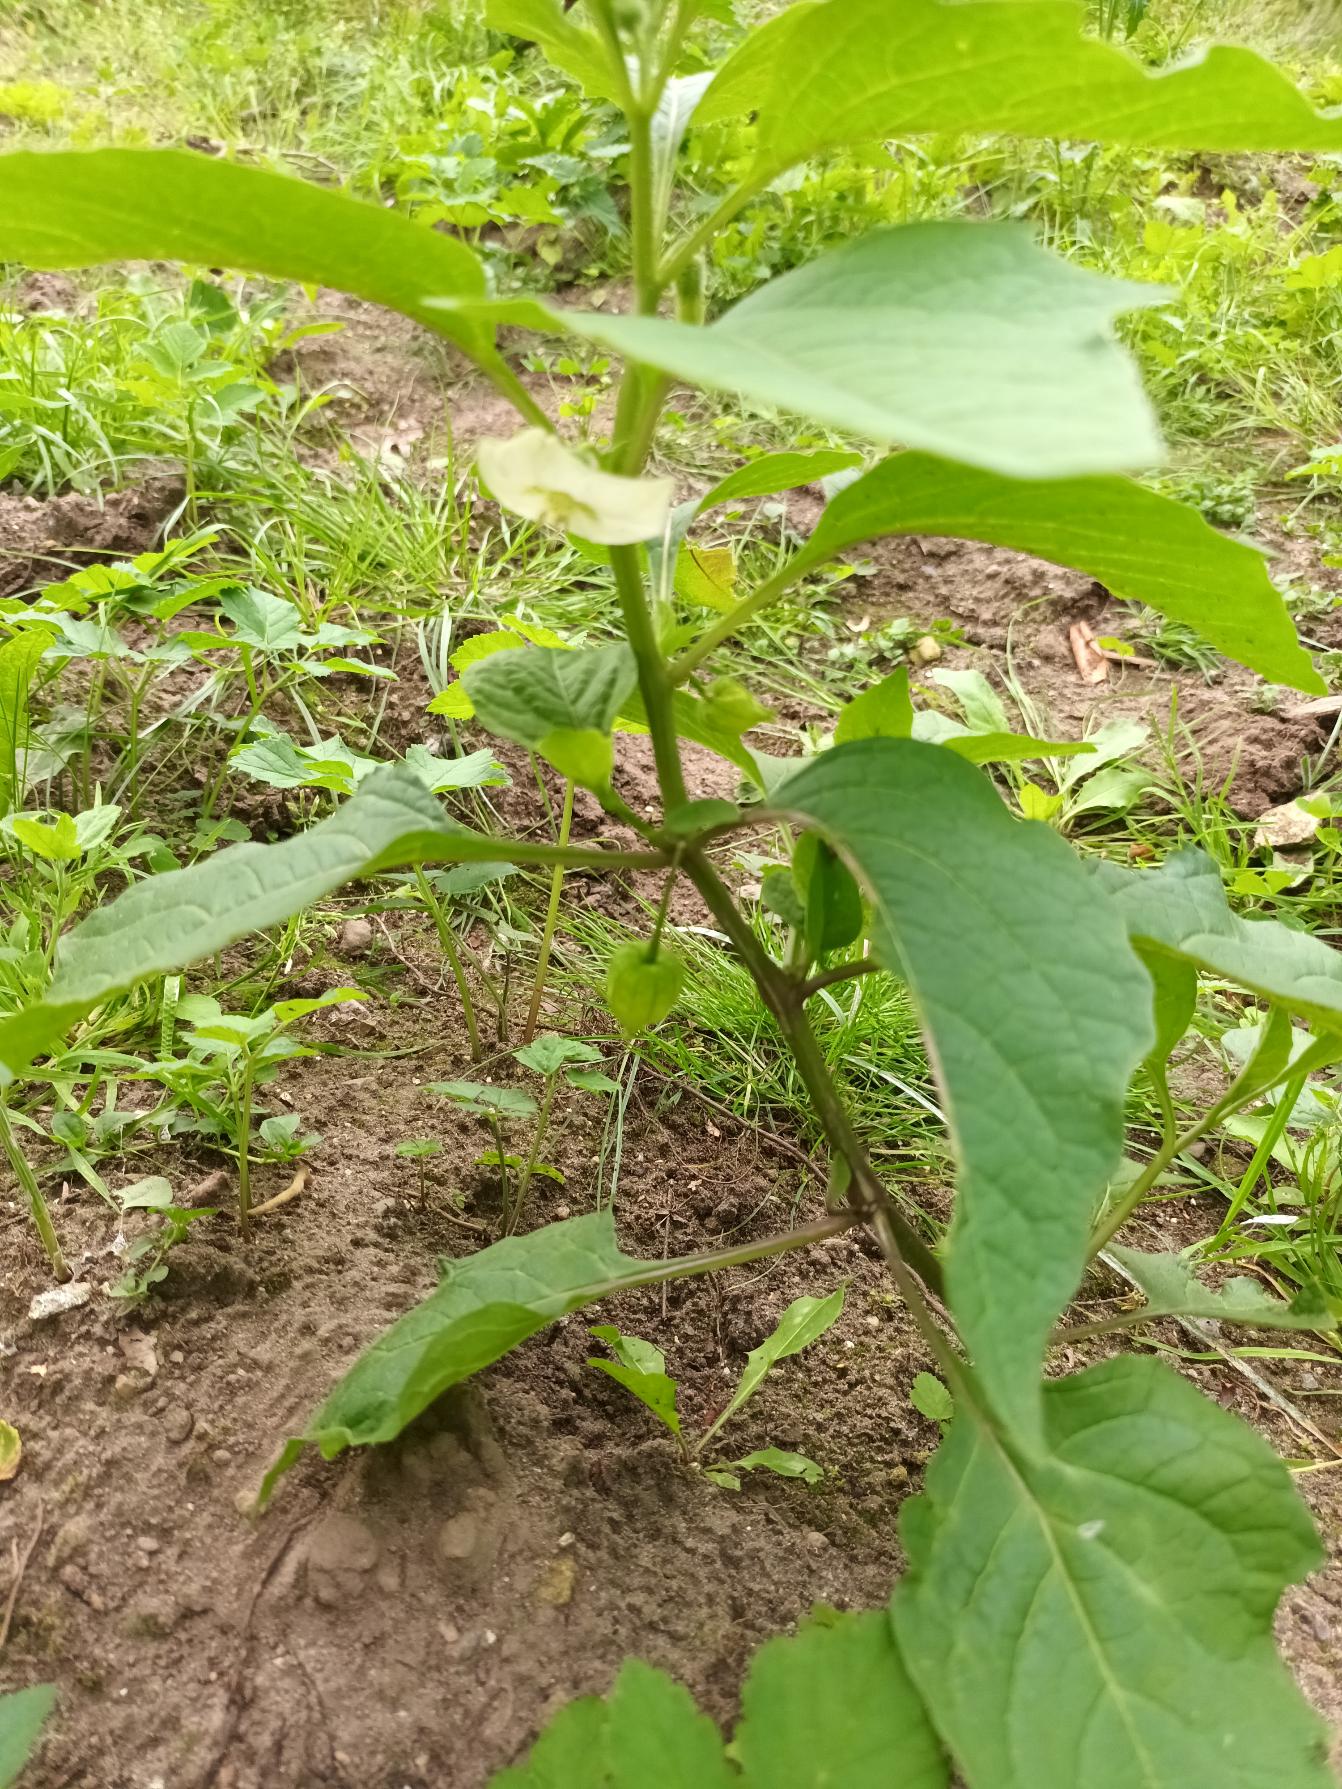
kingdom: Plantae
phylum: Tracheophyta
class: Magnoliopsida
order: Solanales
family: Solanaceae
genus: Alkekengi
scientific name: Alkekengi officinarum
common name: Jødekirsebær
